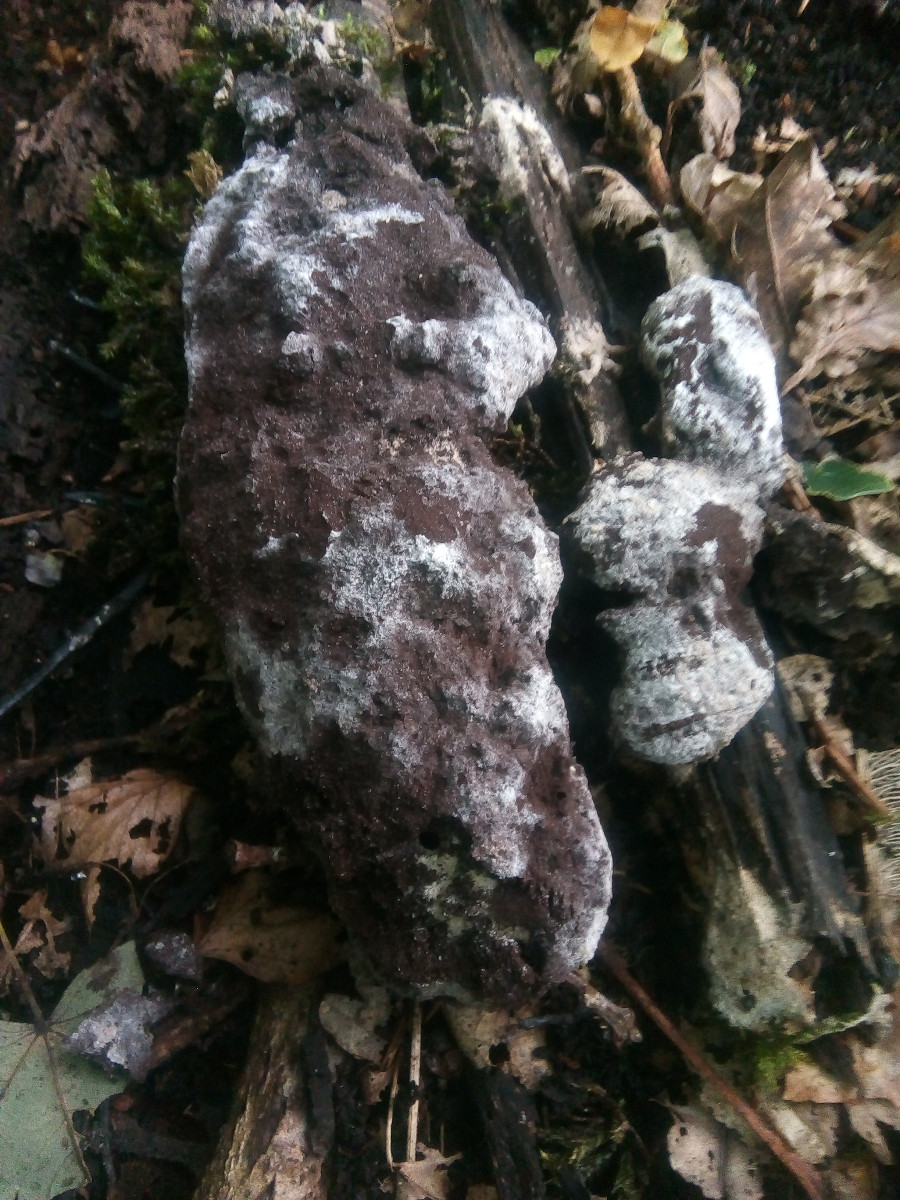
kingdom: Protozoa
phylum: Mycetozoa
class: Myxomycetes
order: Physarales
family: Physaraceae
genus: Fuligo
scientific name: Fuligo
